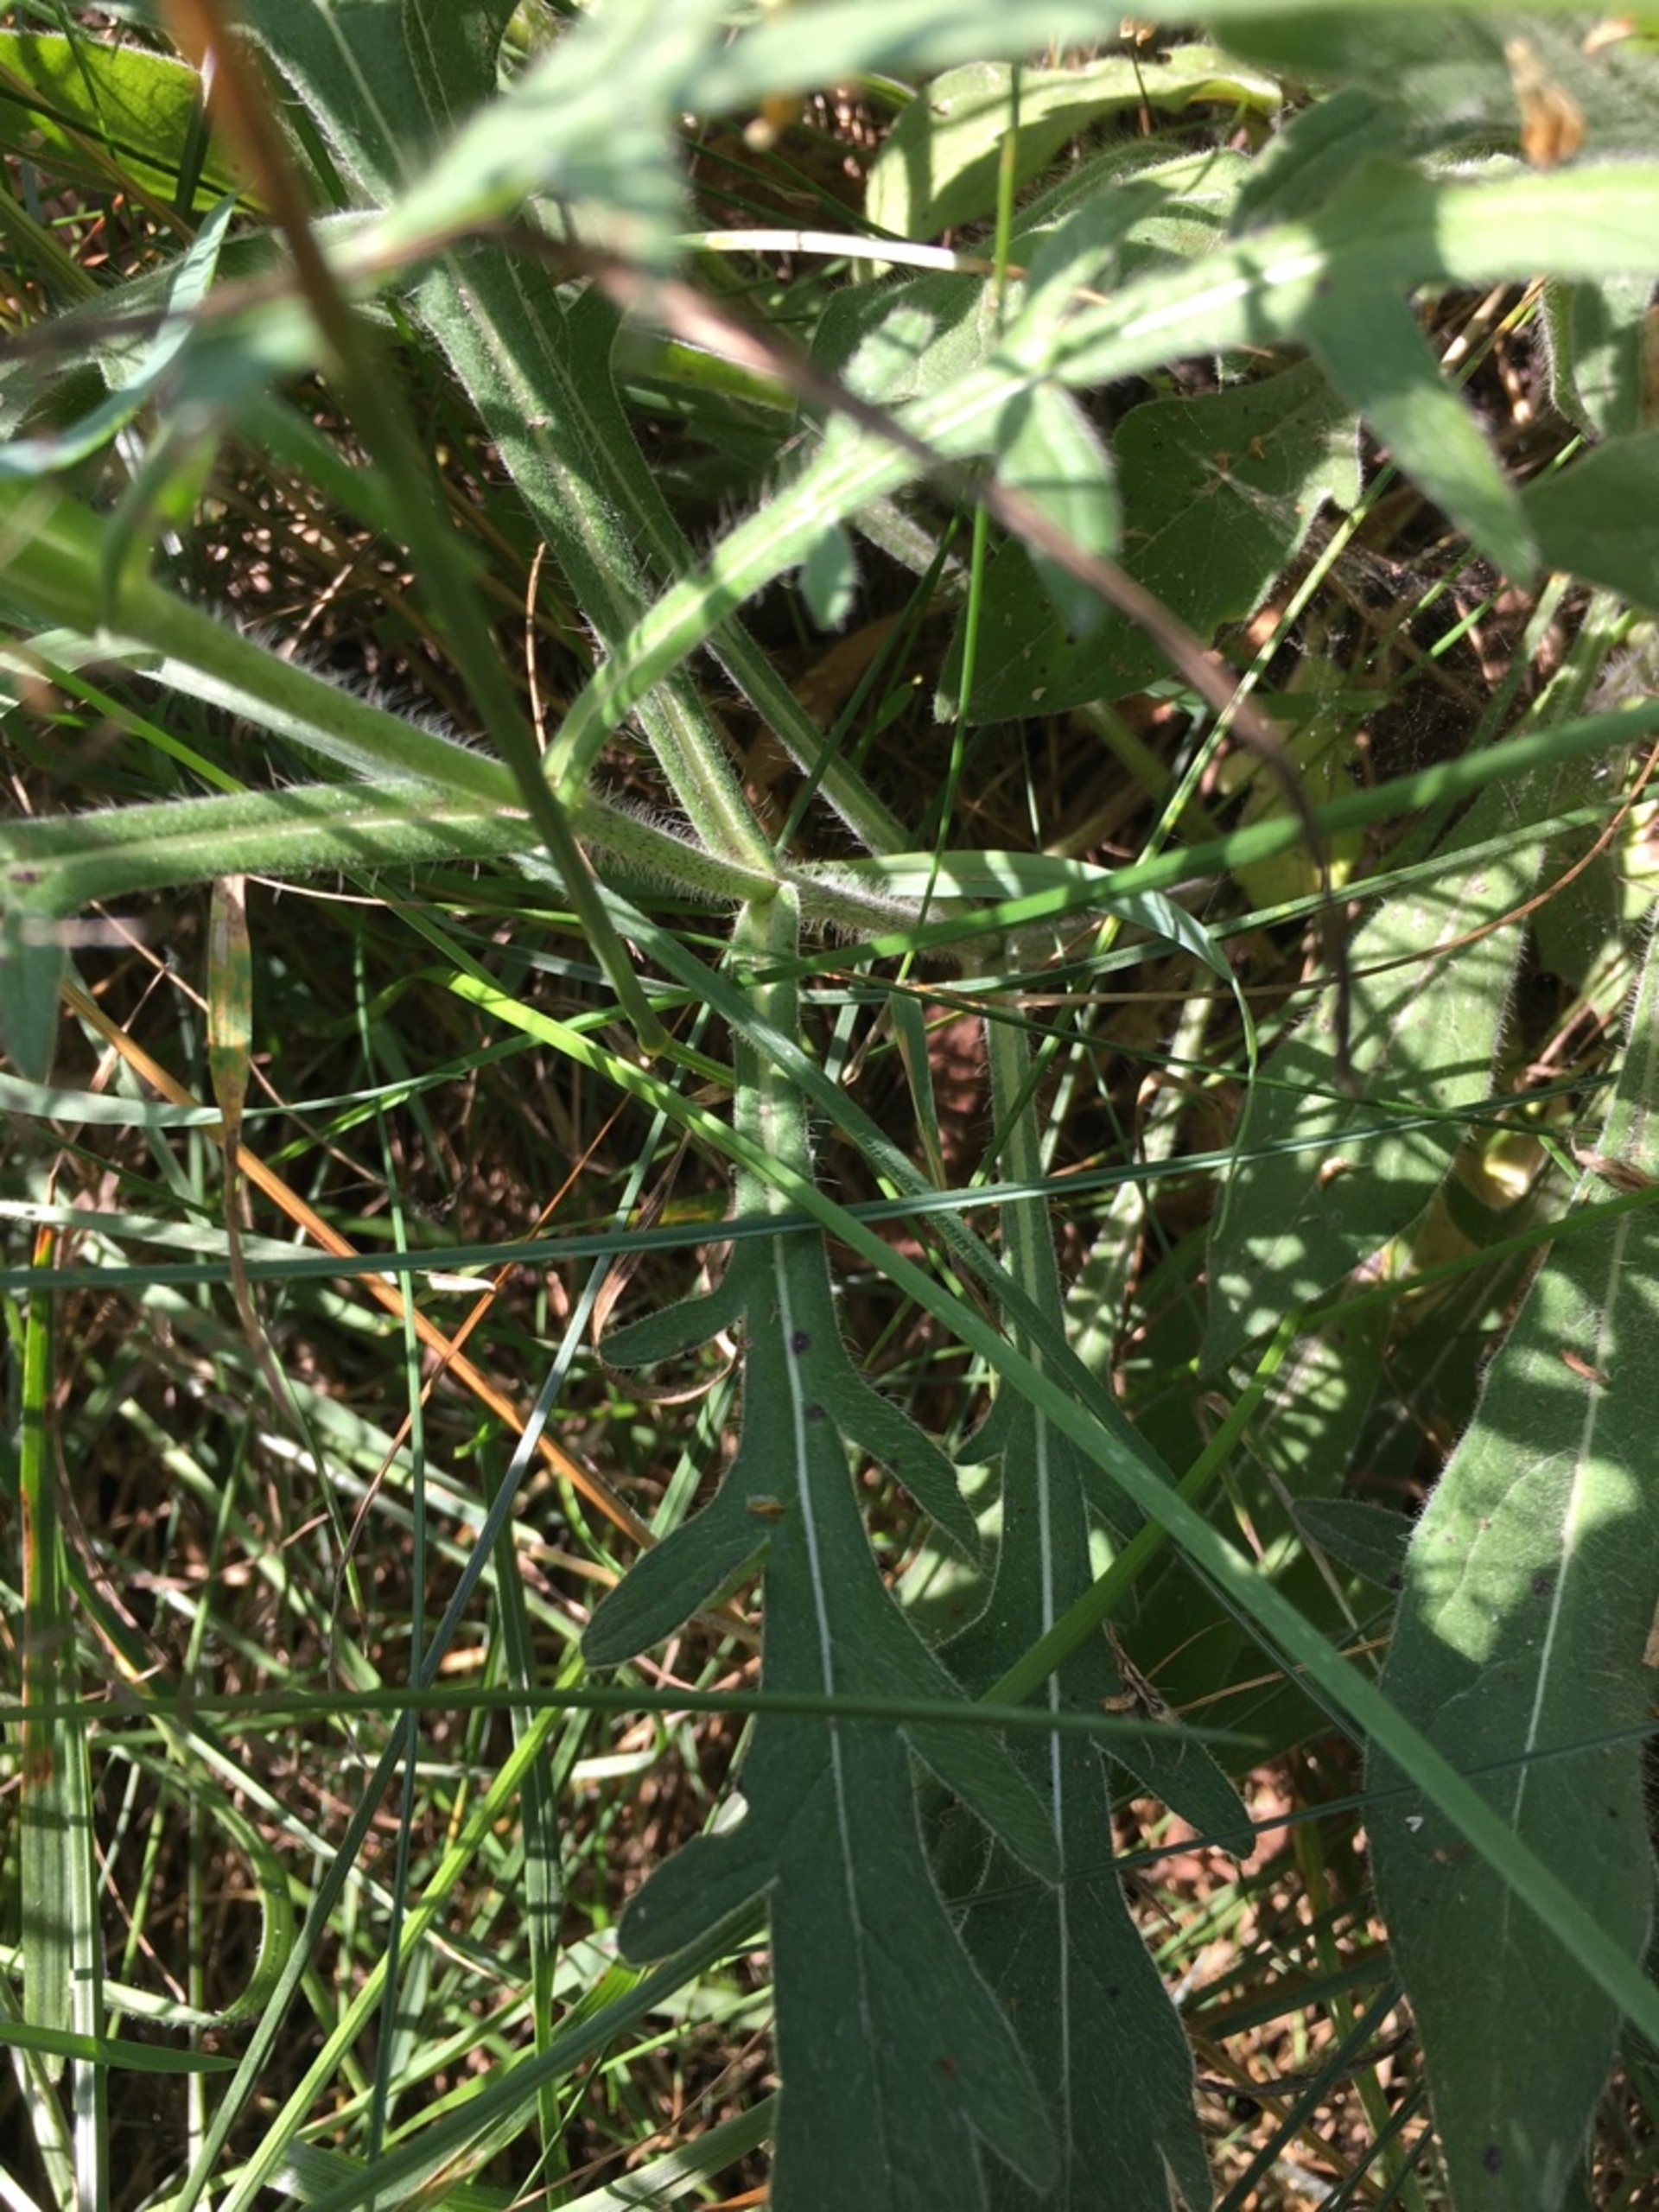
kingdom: Plantae
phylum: Tracheophyta
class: Magnoliopsida
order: Dipsacales
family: Caprifoliaceae
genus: Knautia
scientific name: Knautia arvensis
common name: Blåhat
